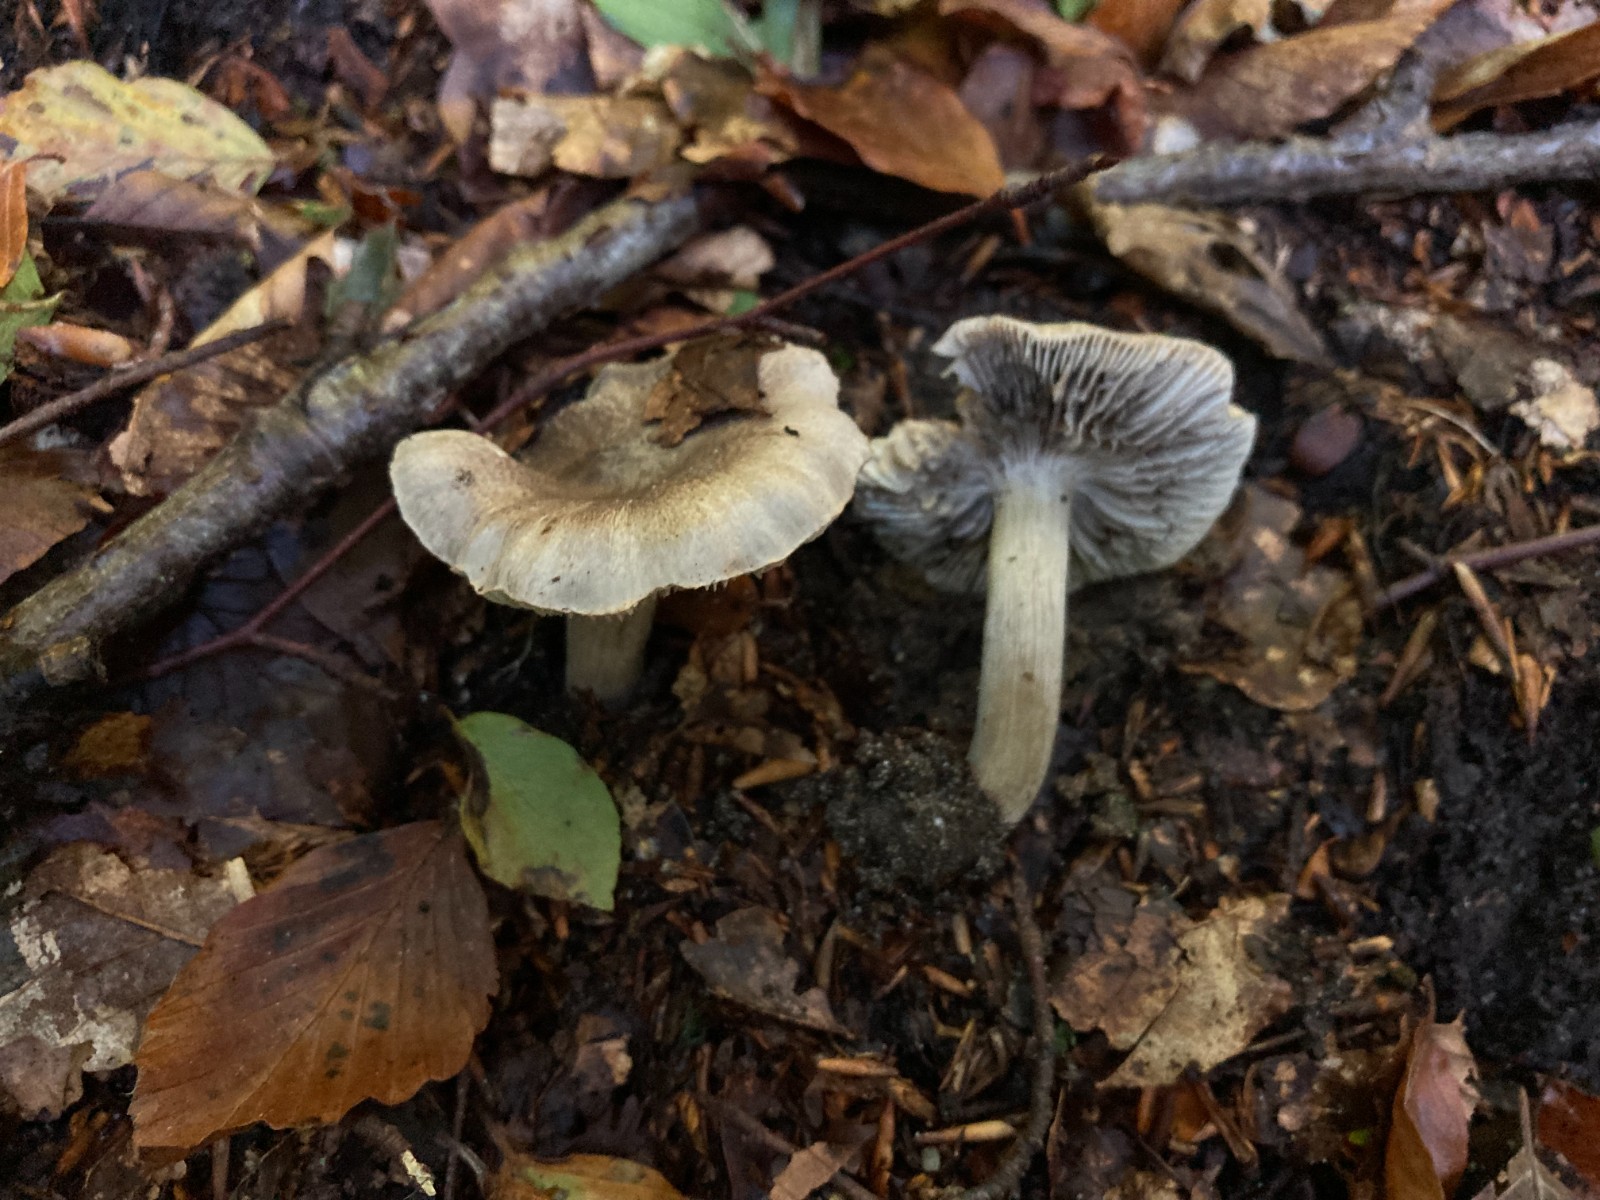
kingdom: Fungi
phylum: Basidiomycota
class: Agaricomycetes
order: Agaricales
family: Tricholomataceae
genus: Tricholoma
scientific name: Tricholoma sciodes
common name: stribet ridderhat
